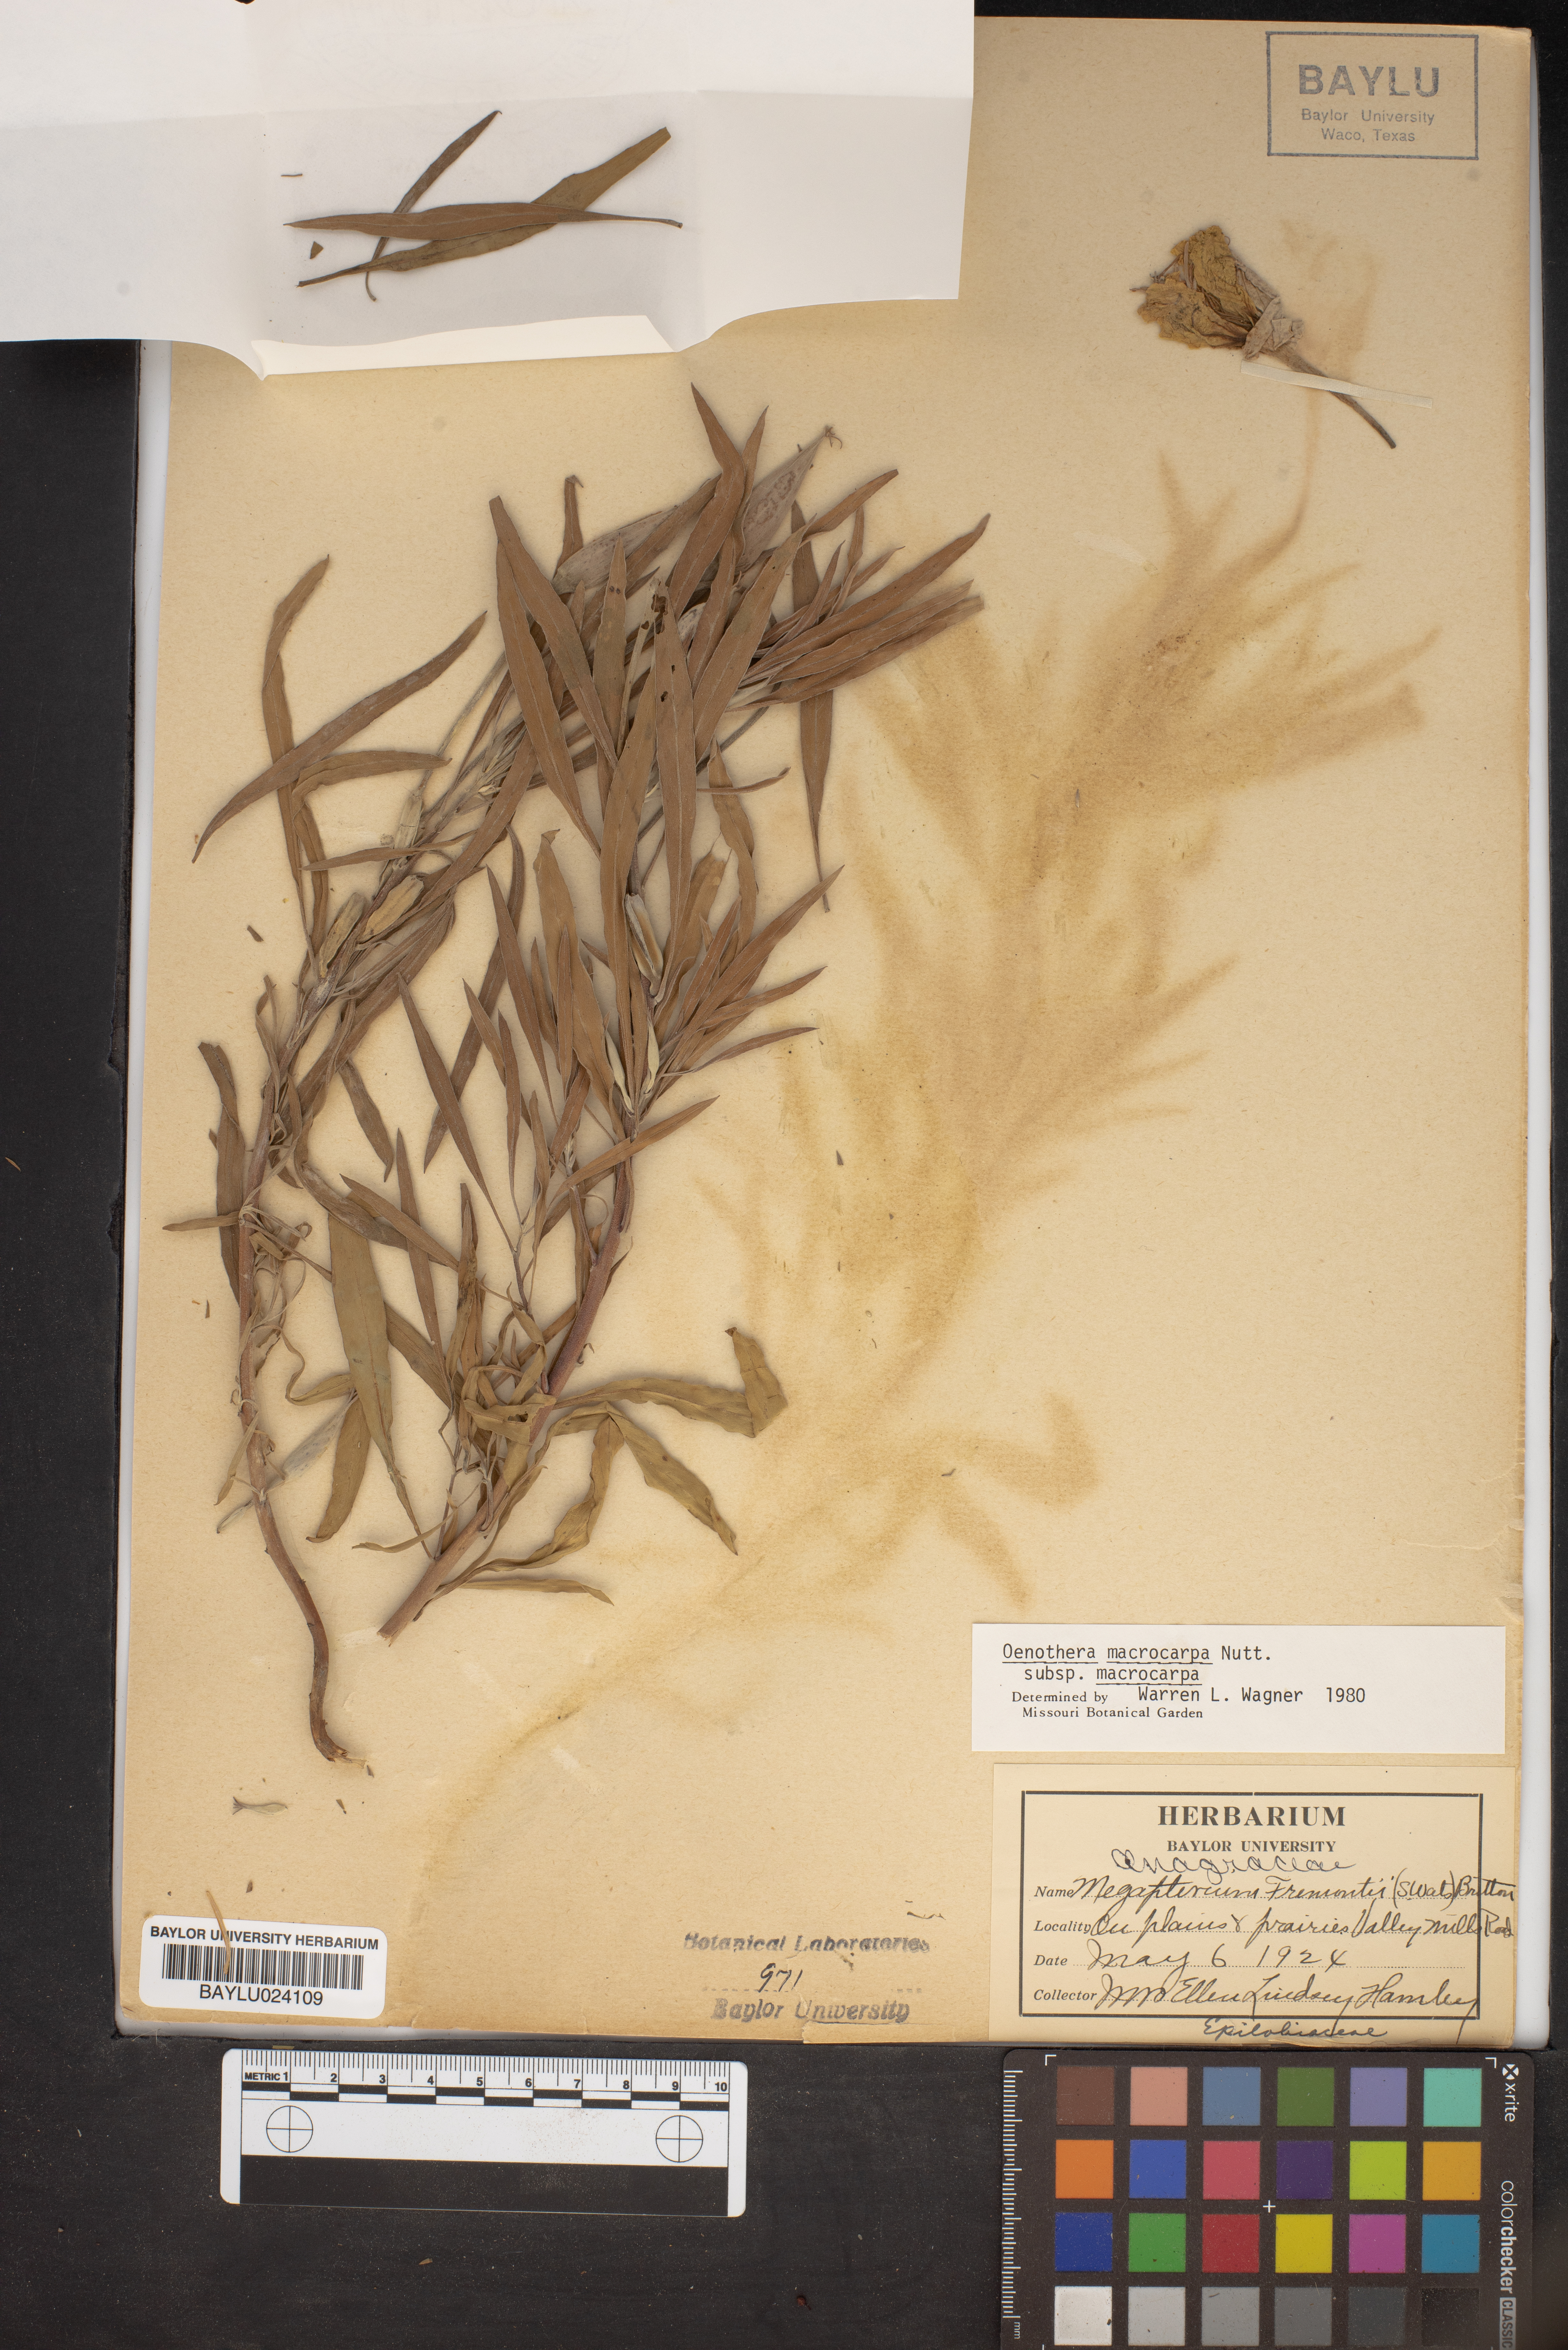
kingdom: Plantae
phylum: Tracheophyta
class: Magnoliopsida
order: Myrtales
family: Onagraceae
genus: Oenothera
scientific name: Oenothera macrocarpa
